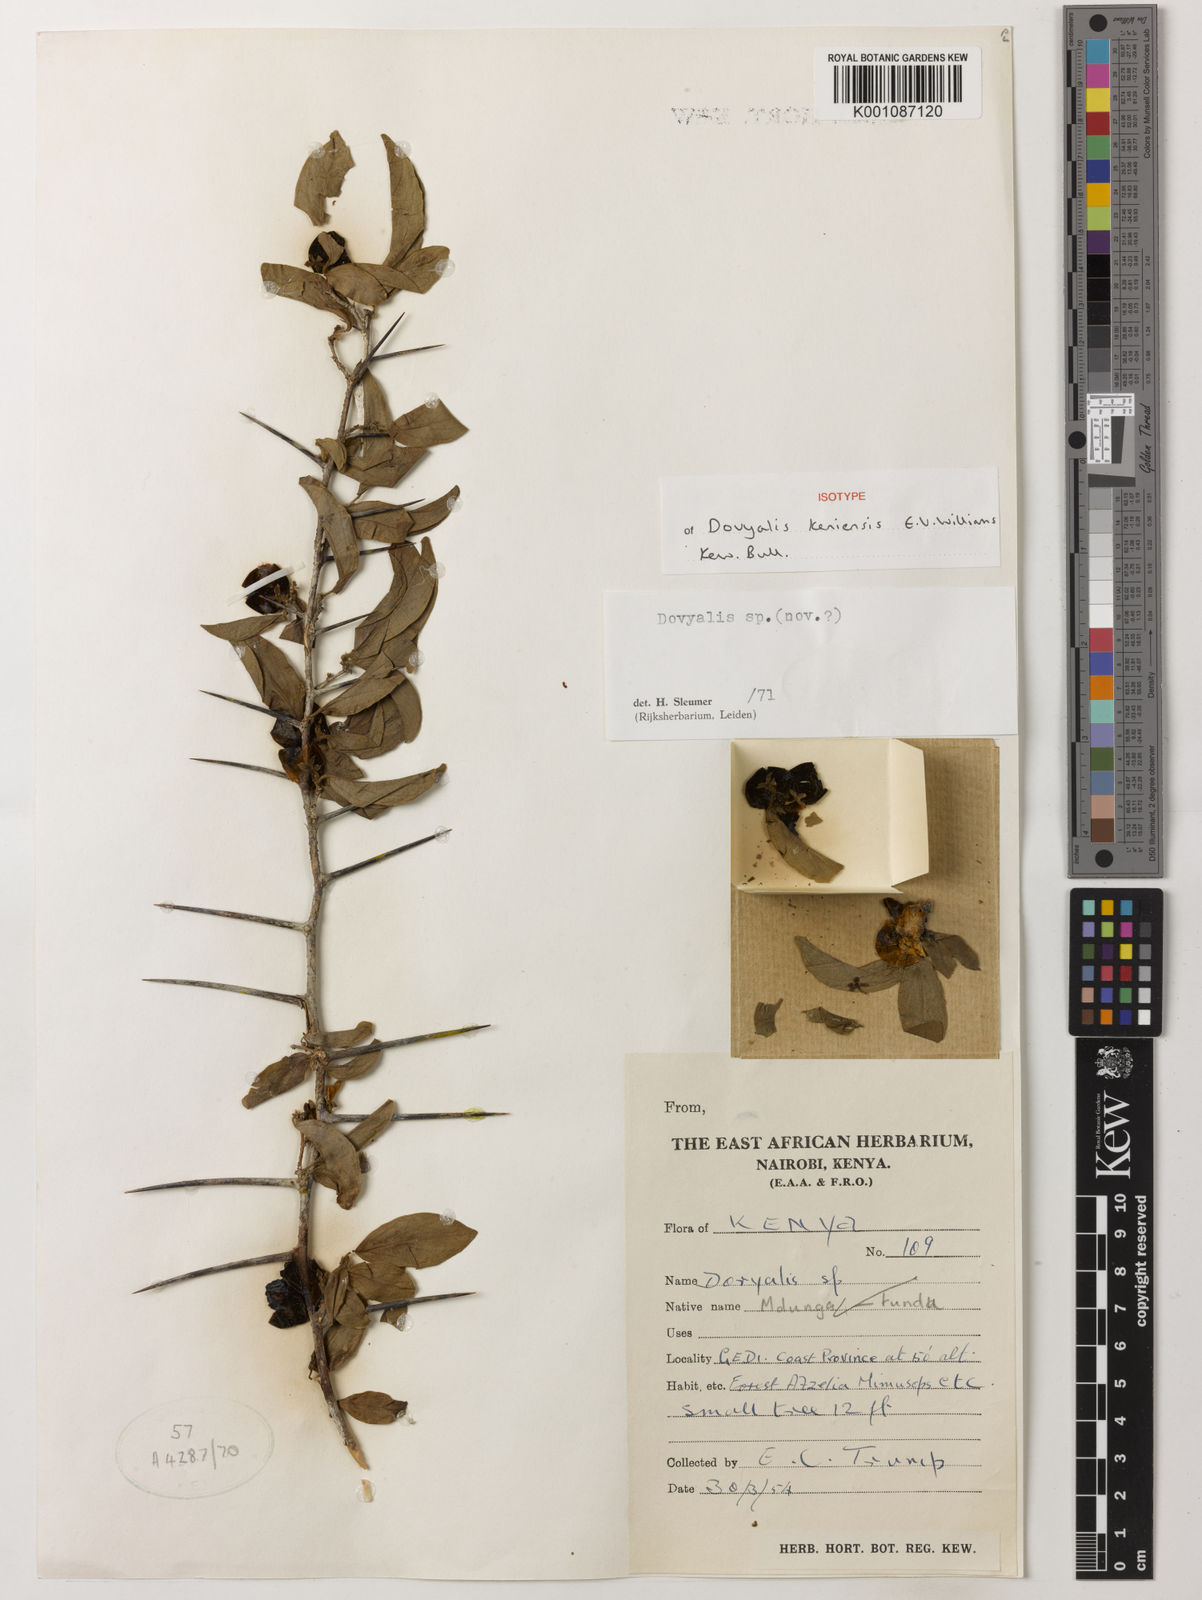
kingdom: Plantae
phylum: Tracheophyta
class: Magnoliopsida
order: Malpighiales
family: Salicaceae
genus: Dovyalis
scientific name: Dovyalis keniensis
